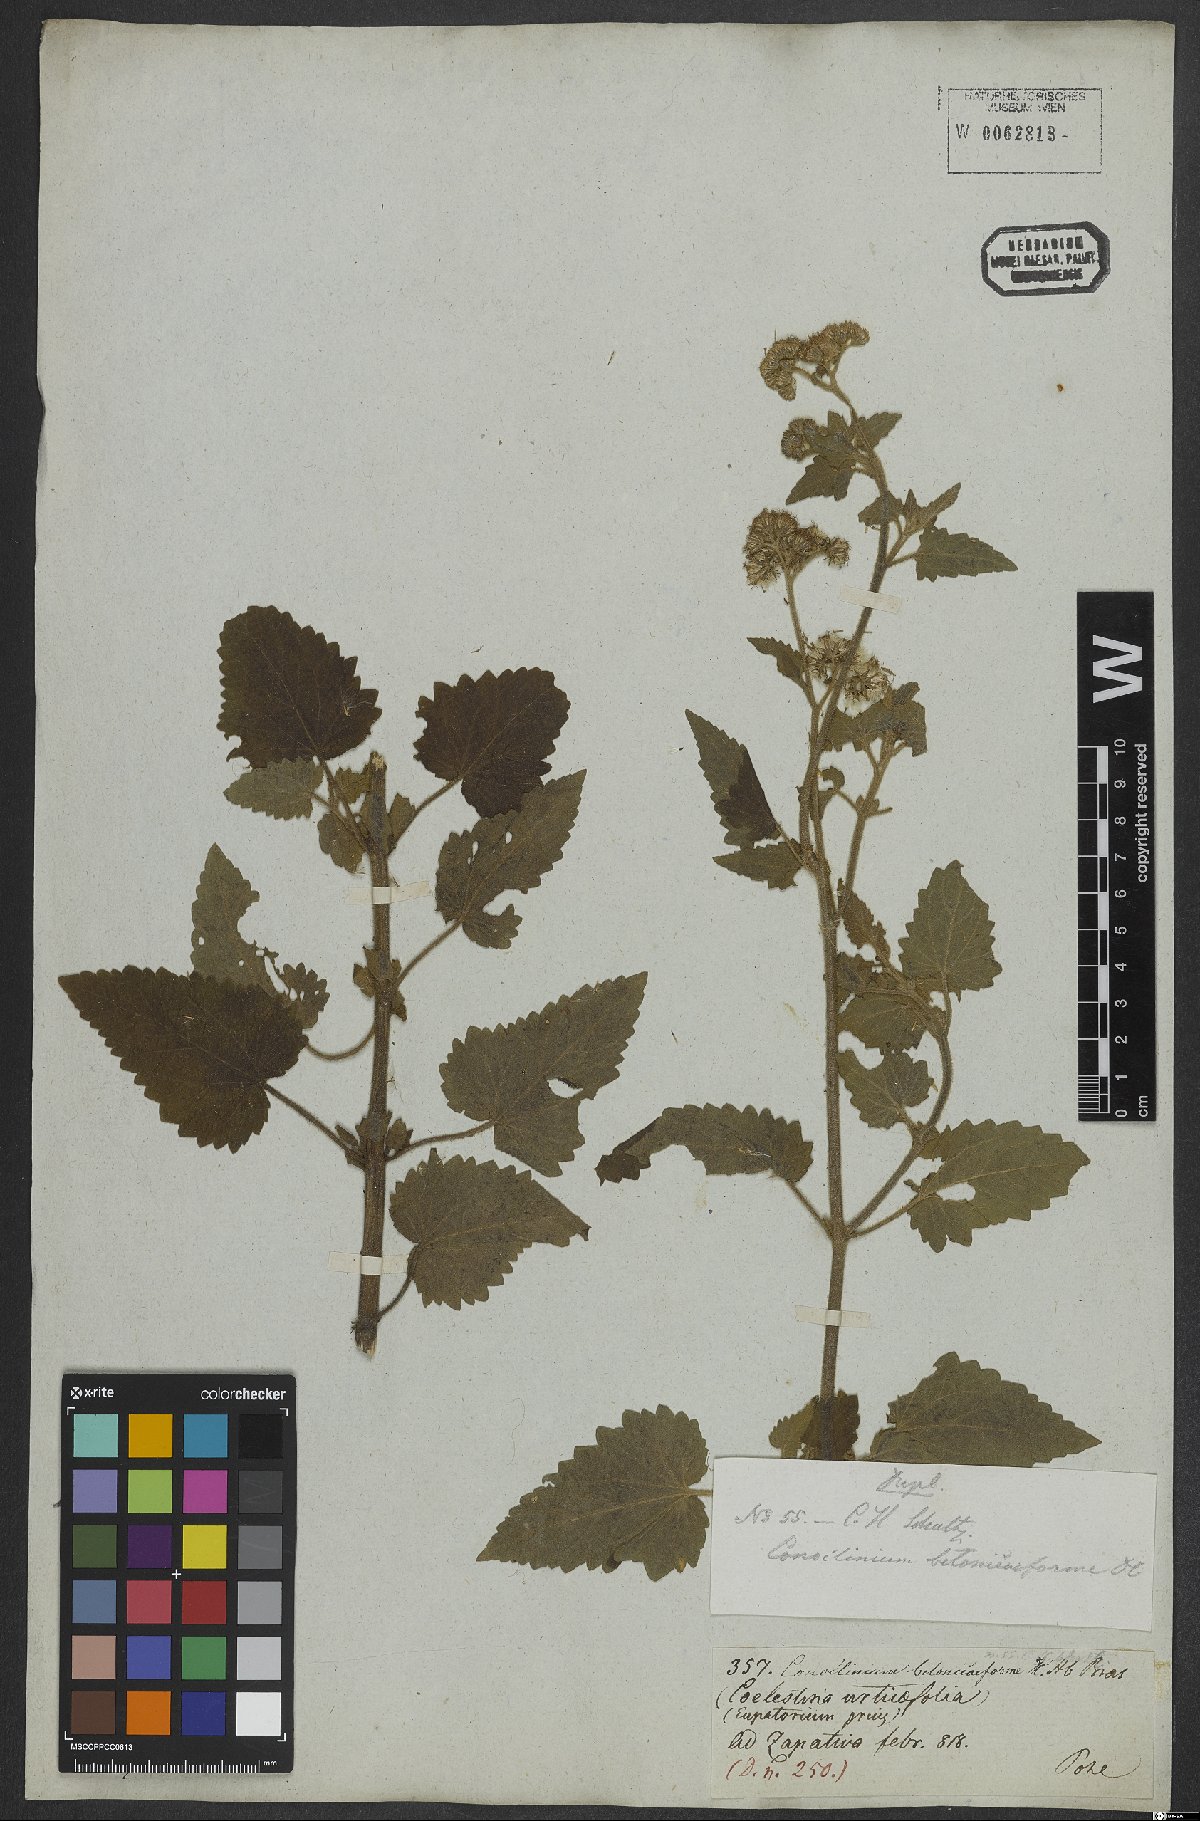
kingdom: Plantae
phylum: Tracheophyta
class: Magnoliopsida
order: Asterales
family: Asteraceae
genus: Barrosoa
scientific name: Barrosoa betoniciformis
